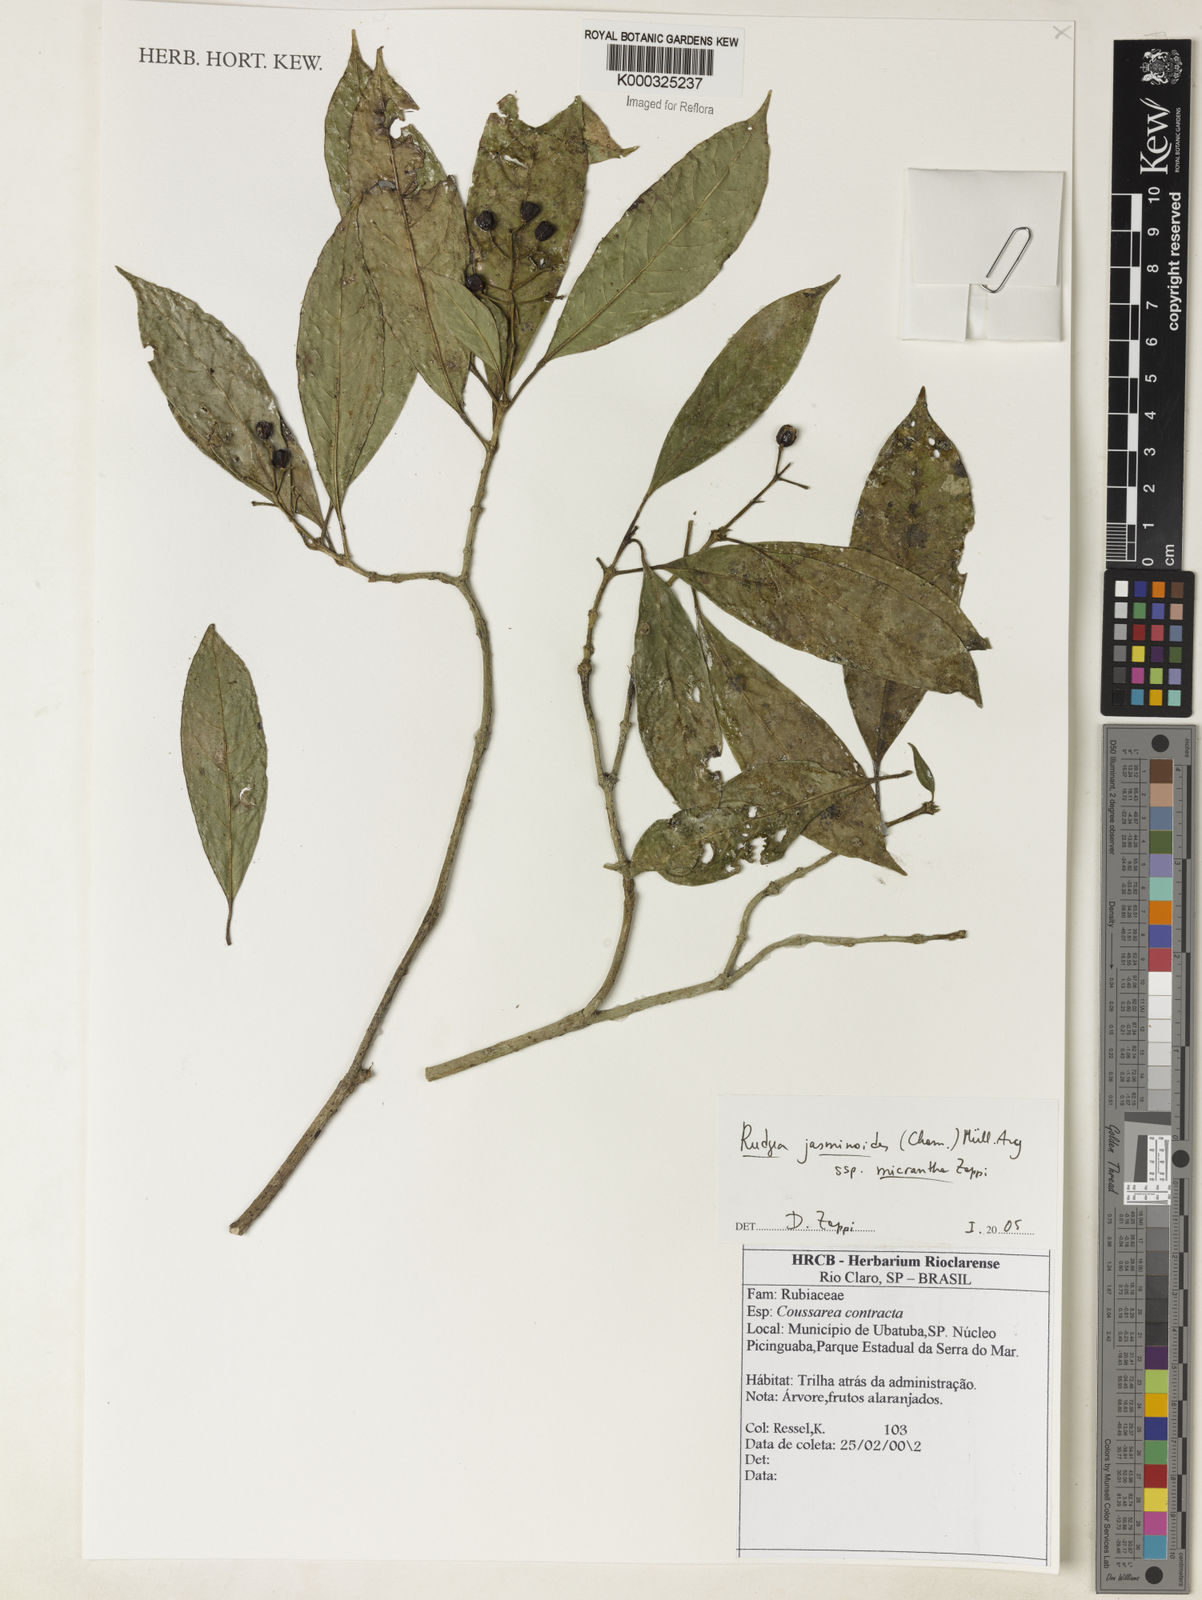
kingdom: Plantae
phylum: Tracheophyta
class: Magnoliopsida
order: Gentianales
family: Rubiaceae
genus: Rudgea
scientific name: Rudgea jasminoides
